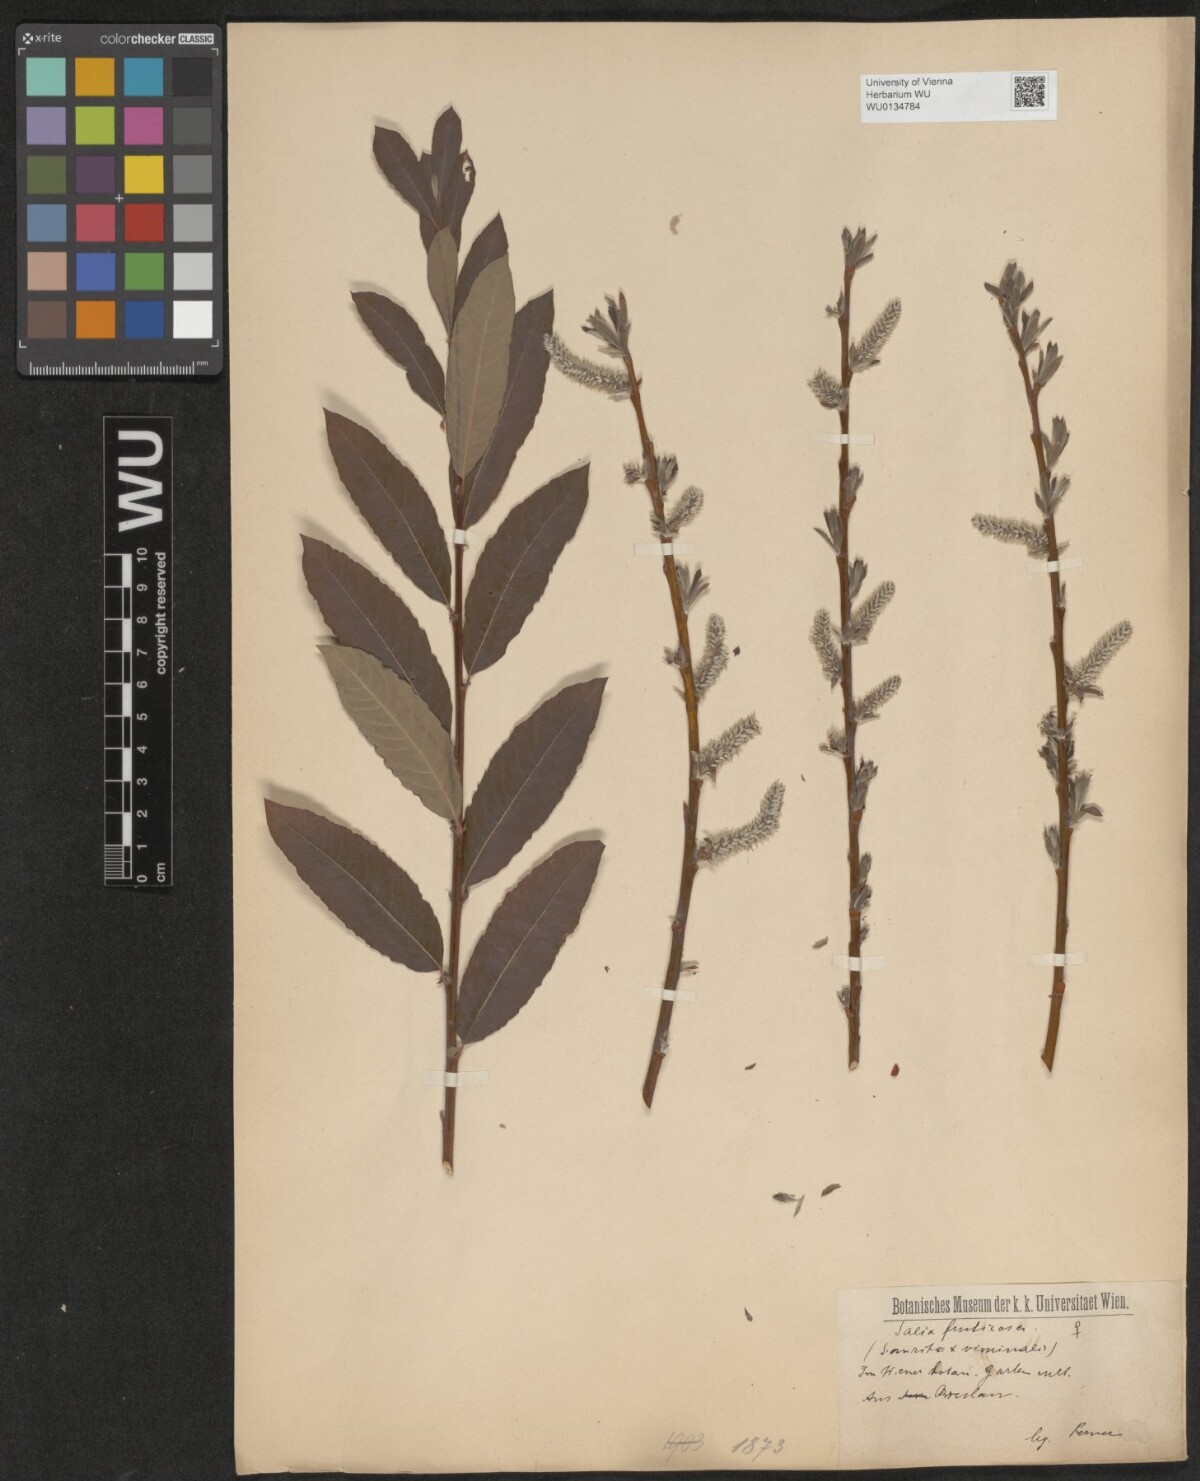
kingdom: Plantae
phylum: Tracheophyta
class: Magnoliopsida
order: Malpighiales
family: Salicaceae
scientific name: Salicaceae
